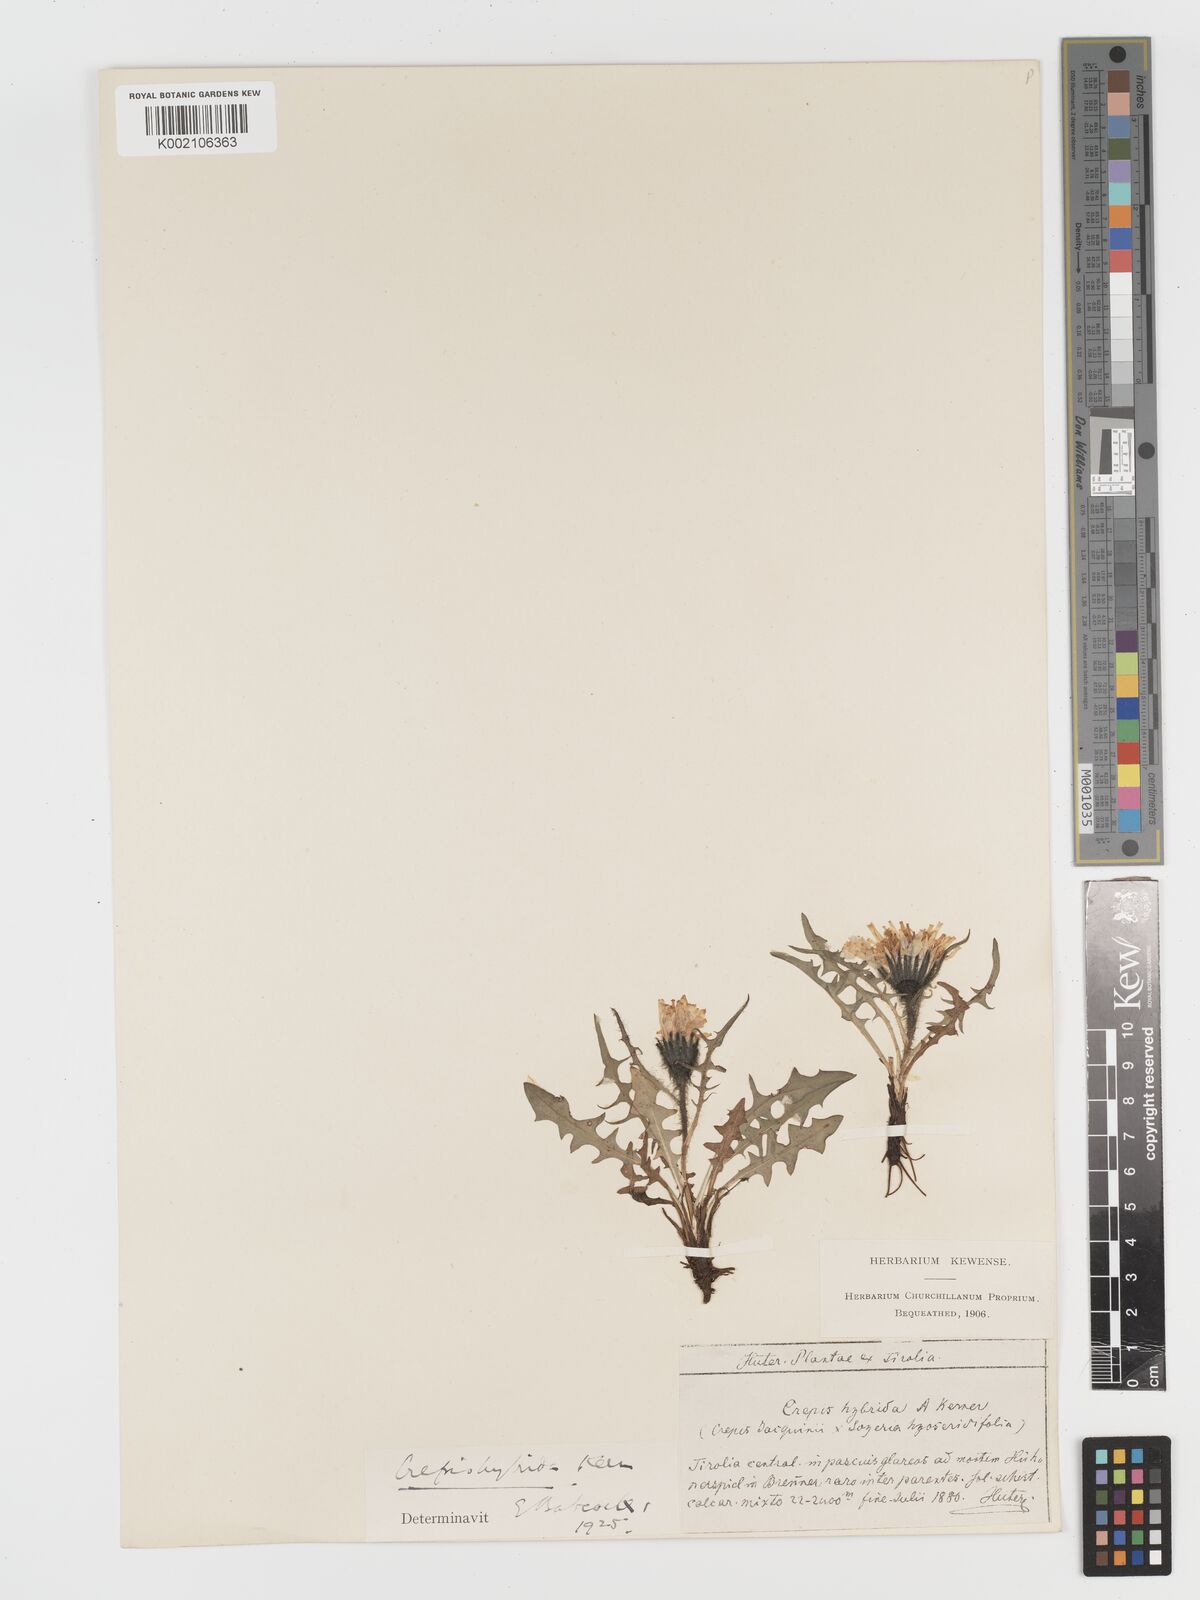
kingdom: Plantae
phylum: Tracheophyta
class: Magnoliopsida
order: Asterales
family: Asteraceae
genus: Crepis
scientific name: Crepis hybrida
